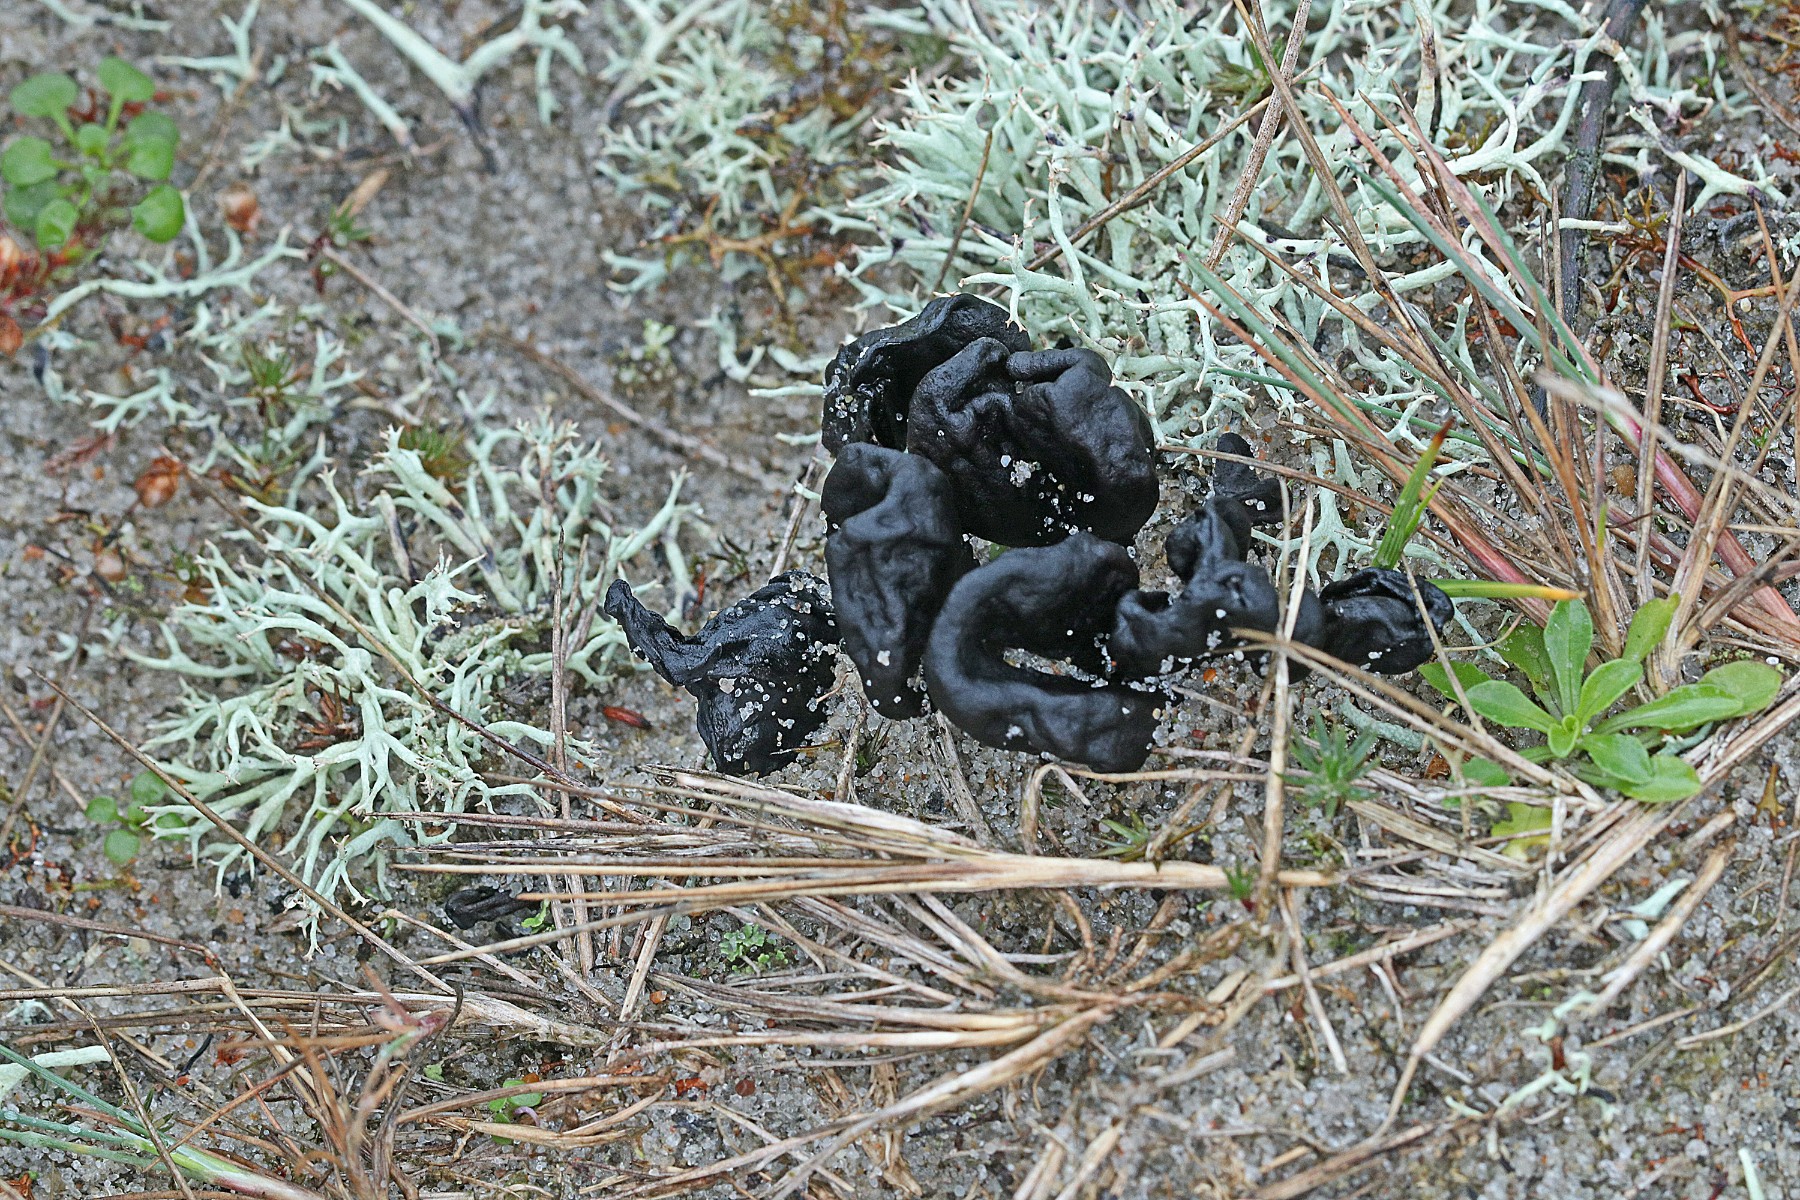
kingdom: Fungi
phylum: Ascomycota
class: Geoglossomycetes
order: Geoglossales
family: Geoglossaceae
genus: Sabuloglossum
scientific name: Sabuloglossum arenarium
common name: klit-jordtunge
